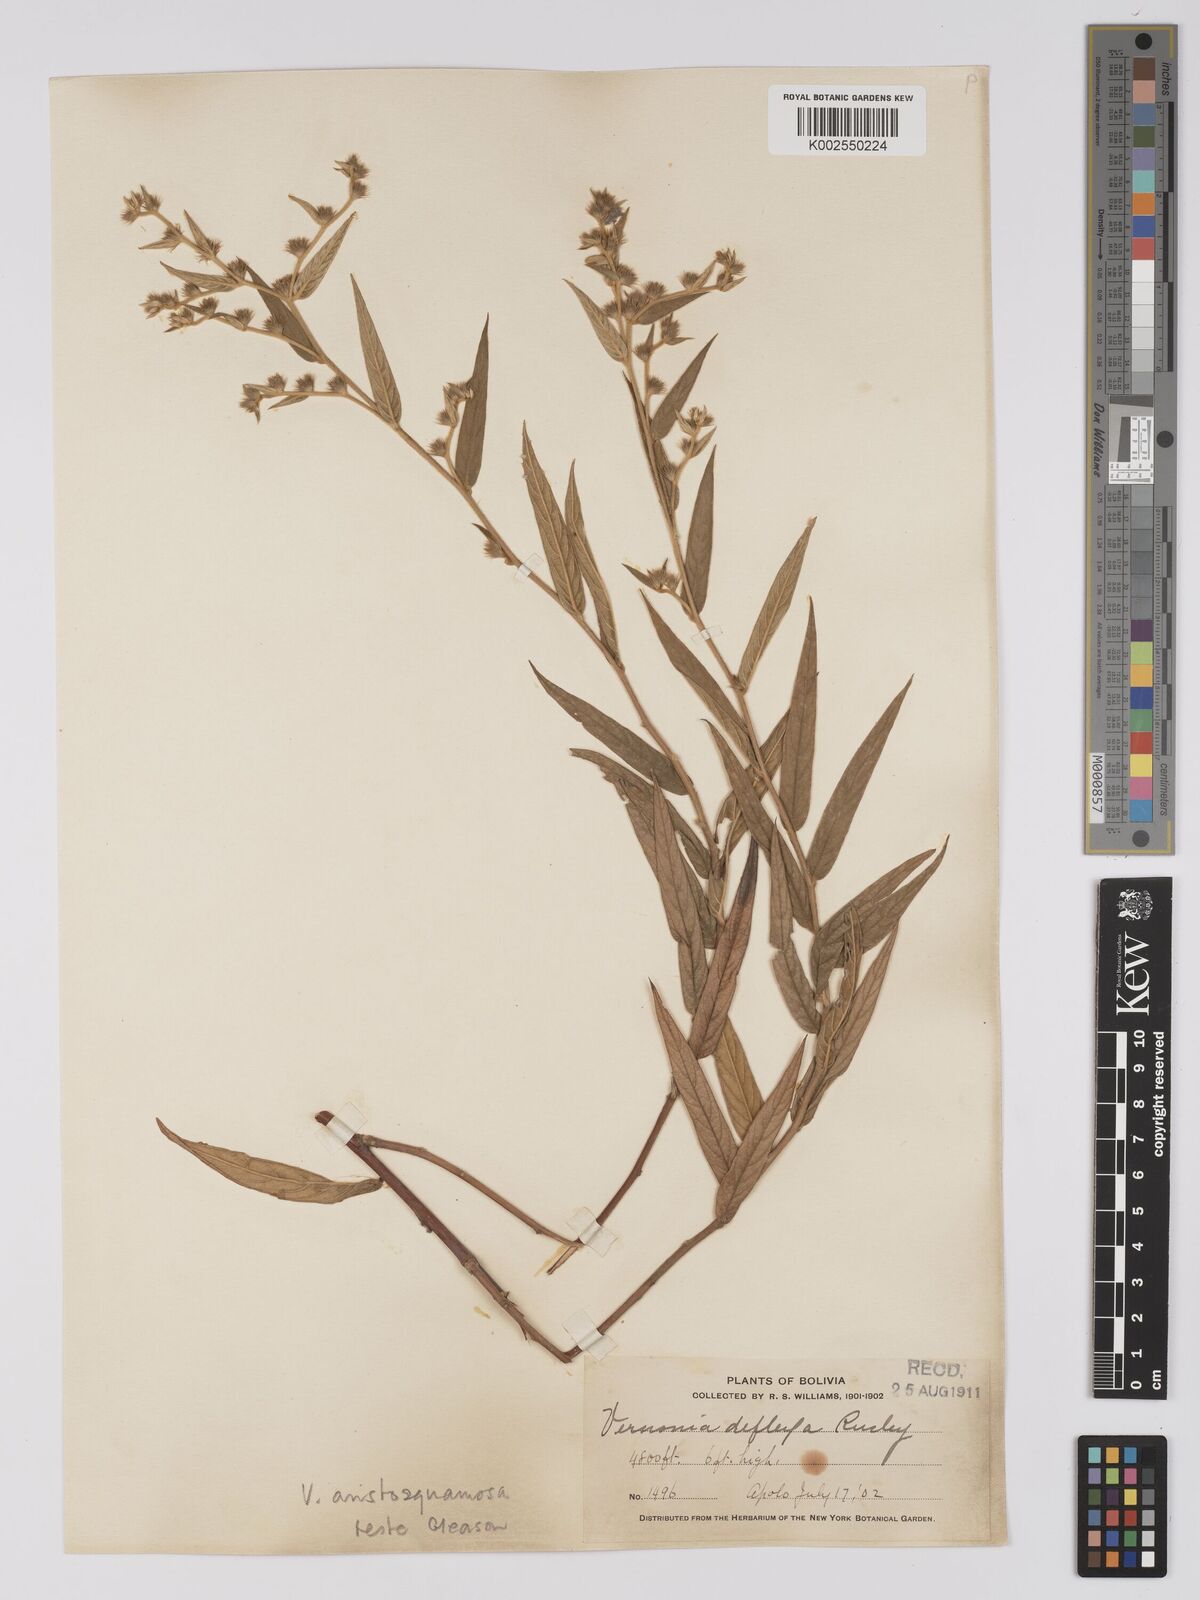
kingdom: Plantae
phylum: Tracheophyta
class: Magnoliopsida
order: Asterales
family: Asteraceae
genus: Lepidaploa
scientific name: Lepidaploa aristosquamosa
